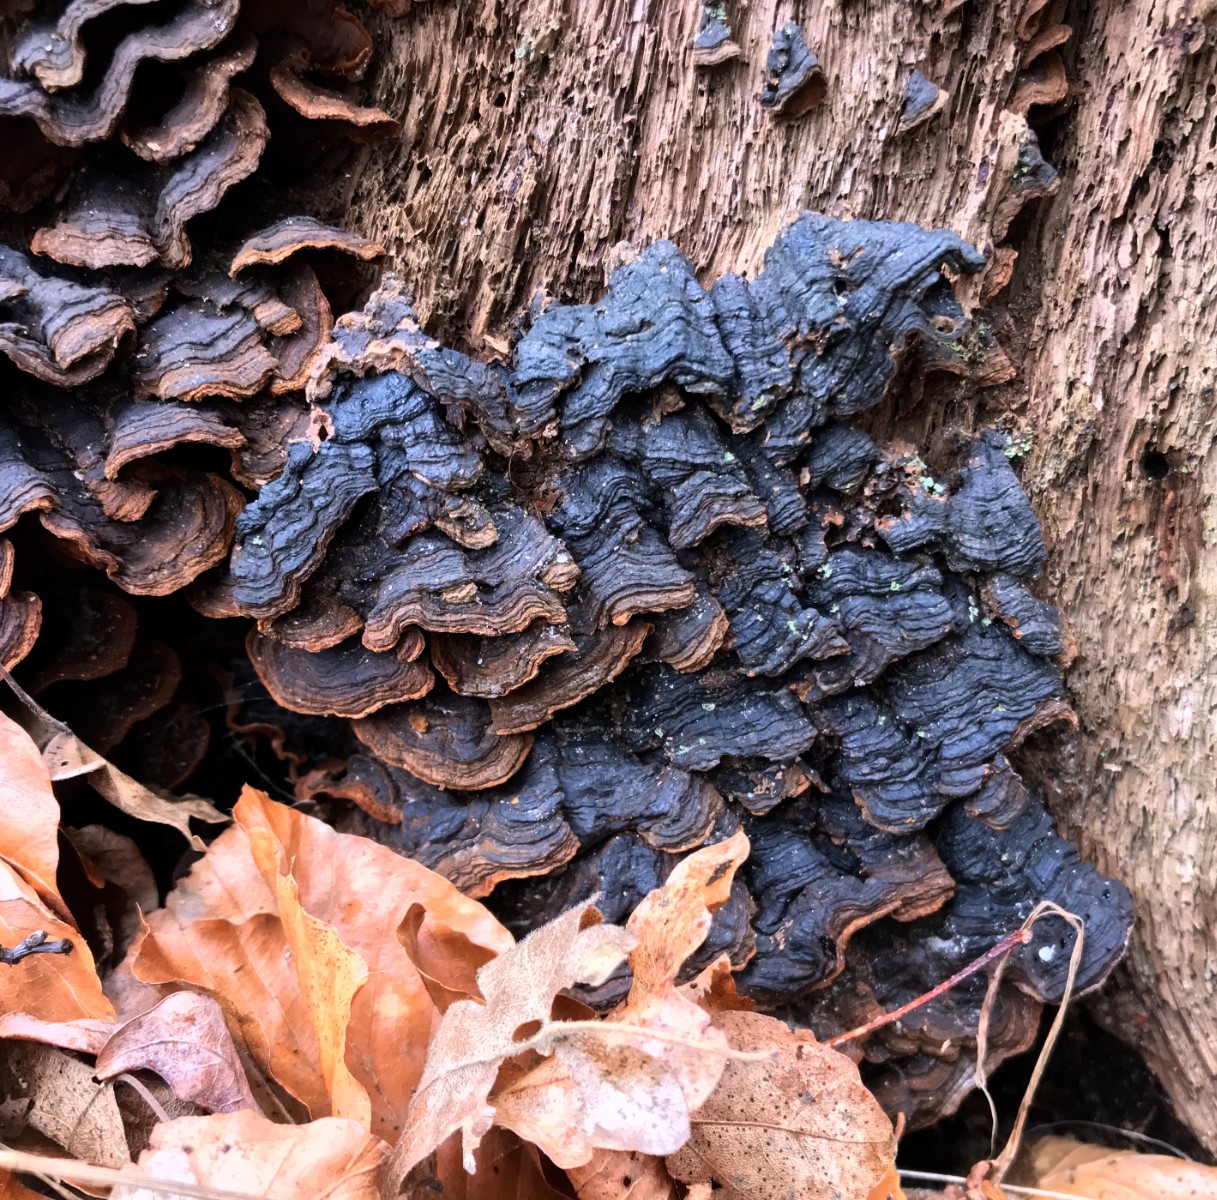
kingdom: Fungi
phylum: Basidiomycota
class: Agaricomycetes
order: Hymenochaetales
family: Hymenochaetaceae
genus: Hymenochaete
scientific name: Hymenochaete rubiginosa
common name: stiv ruslædersvamp
